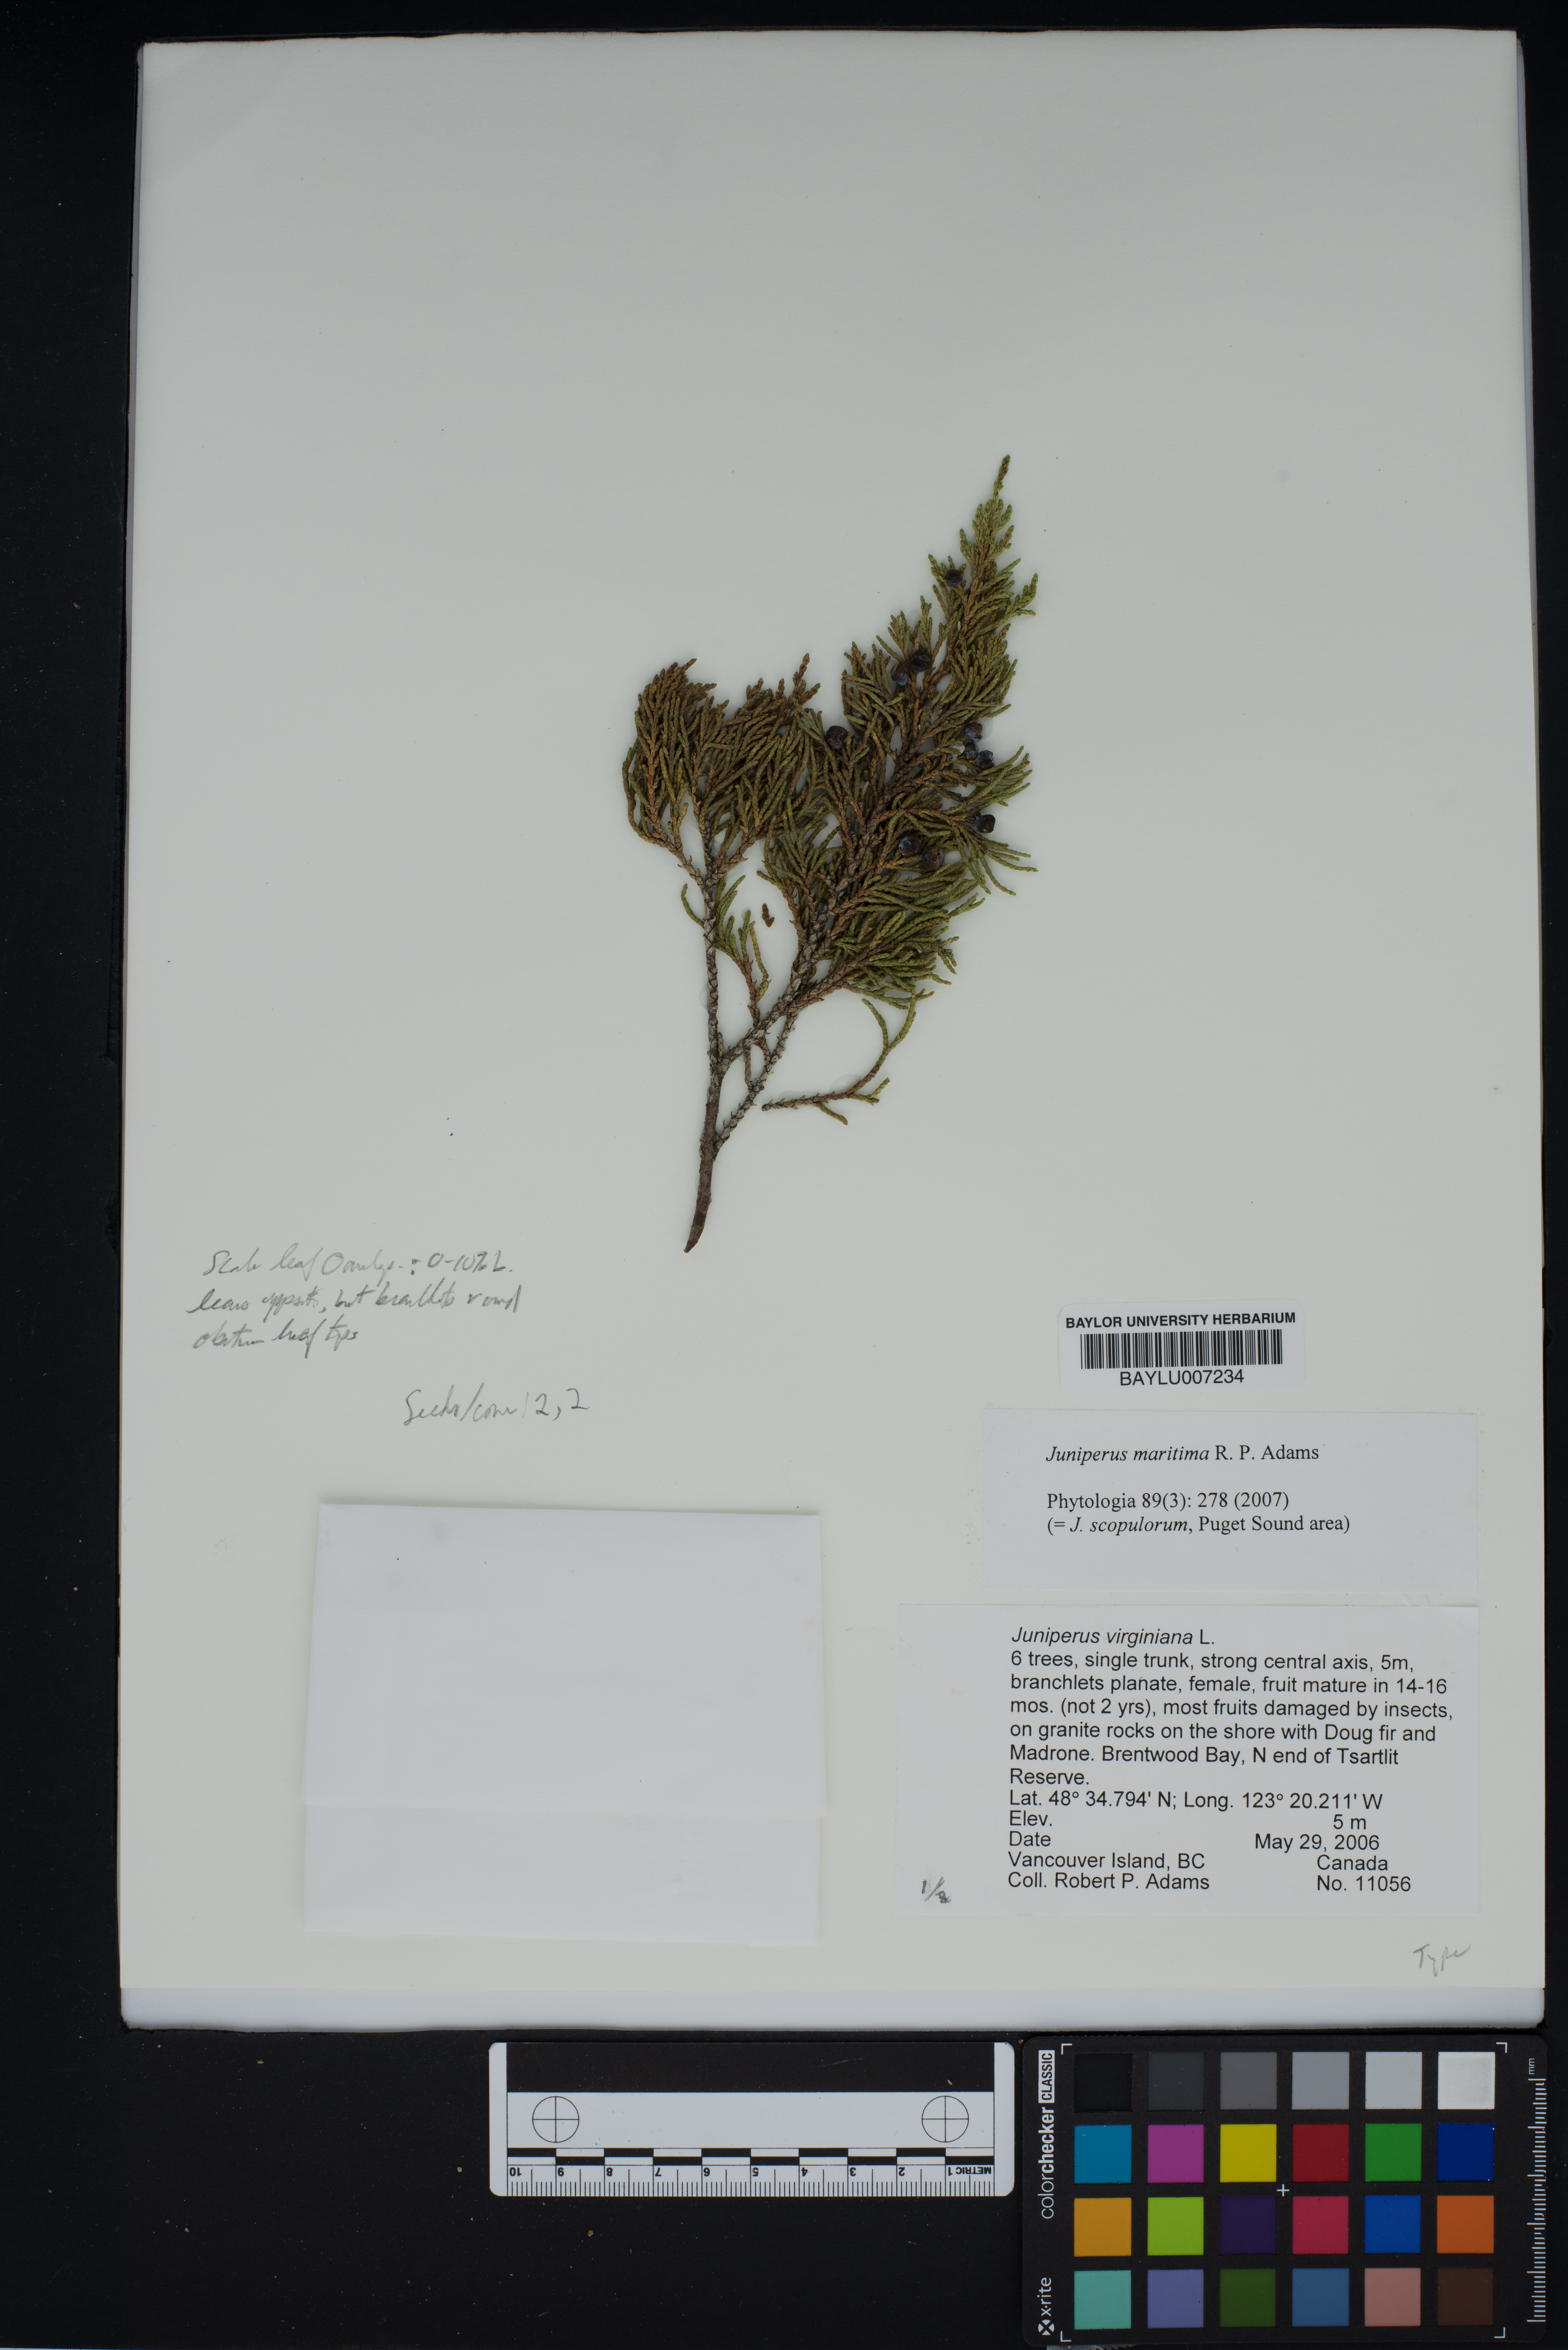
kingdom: Plantae
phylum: Tracheophyta
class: Pinopsida
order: Pinales
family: Cupressaceae
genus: Juniperus
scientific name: Juniperus scopulorum
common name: Rocky mountain juniper
